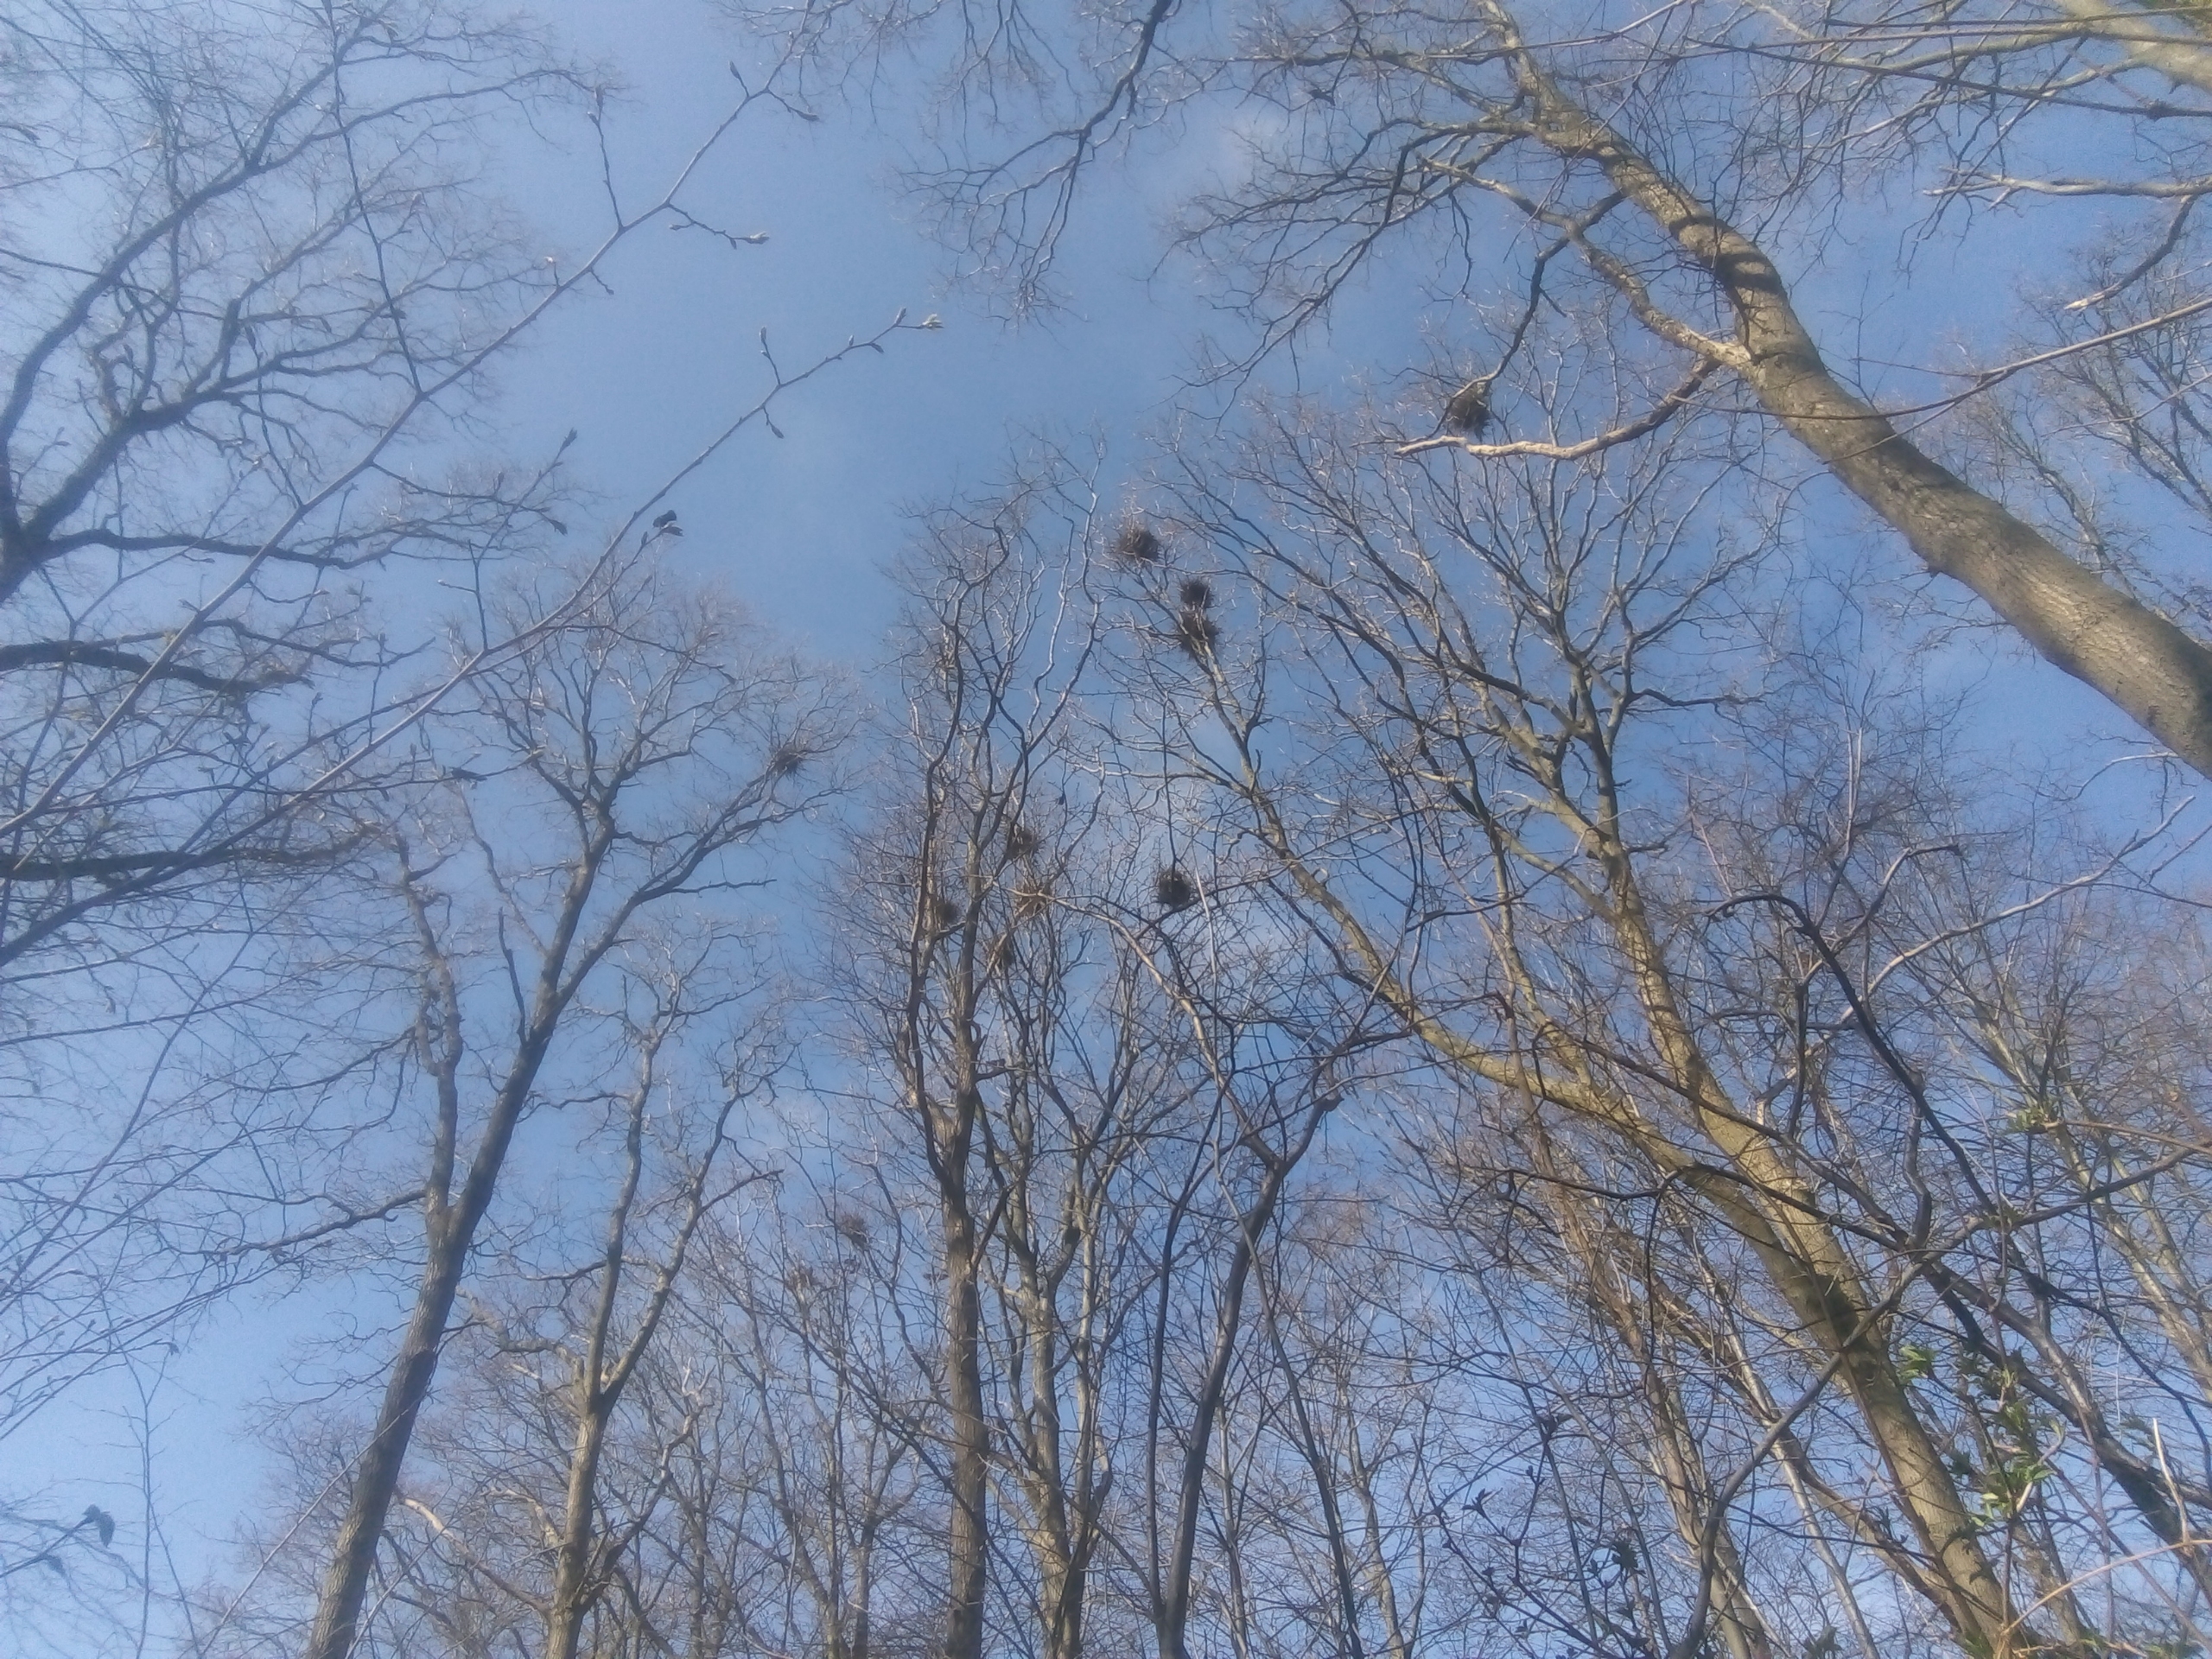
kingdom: Animalia
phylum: Chordata
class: Aves
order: Passeriformes
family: Corvidae
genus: Corvus
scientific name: Corvus frugilegus
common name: Råge
